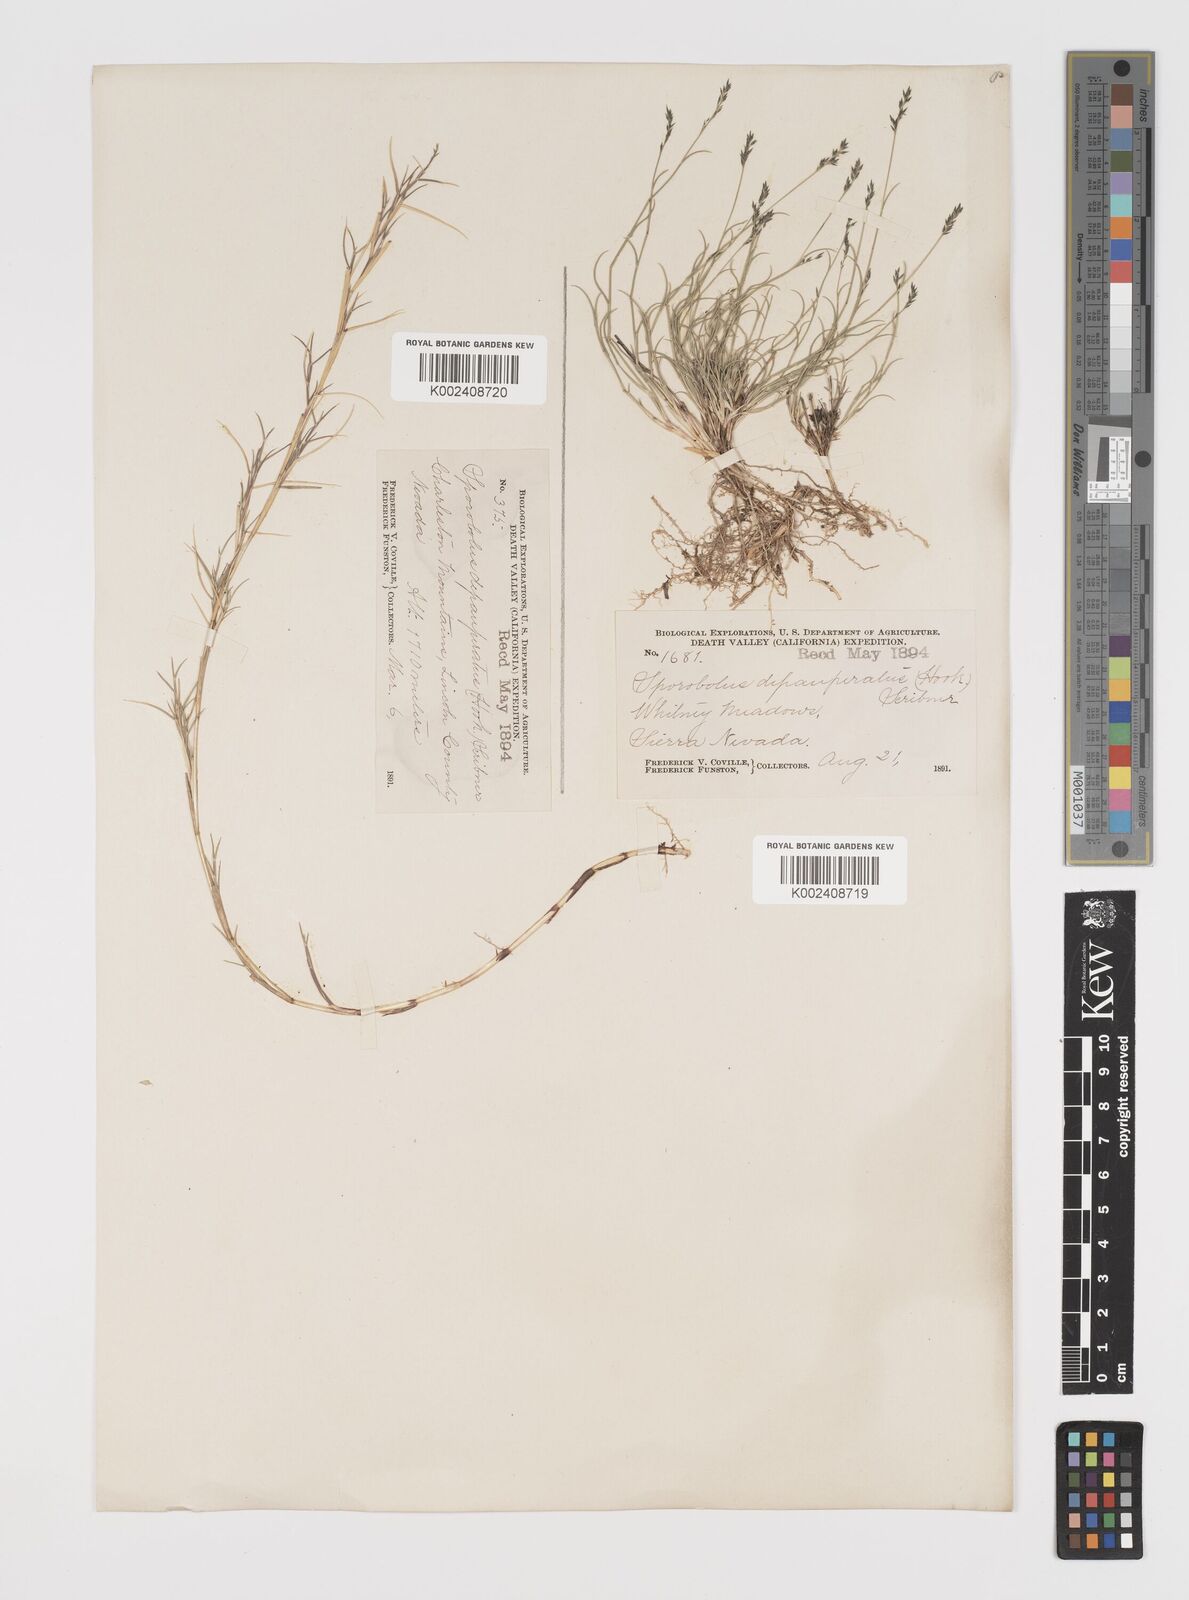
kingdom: Plantae
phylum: Tracheophyta
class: Liliopsida
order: Poales
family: Poaceae
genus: Muhlenbergia
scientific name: Muhlenbergia richardsonis
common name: Mat muhly
